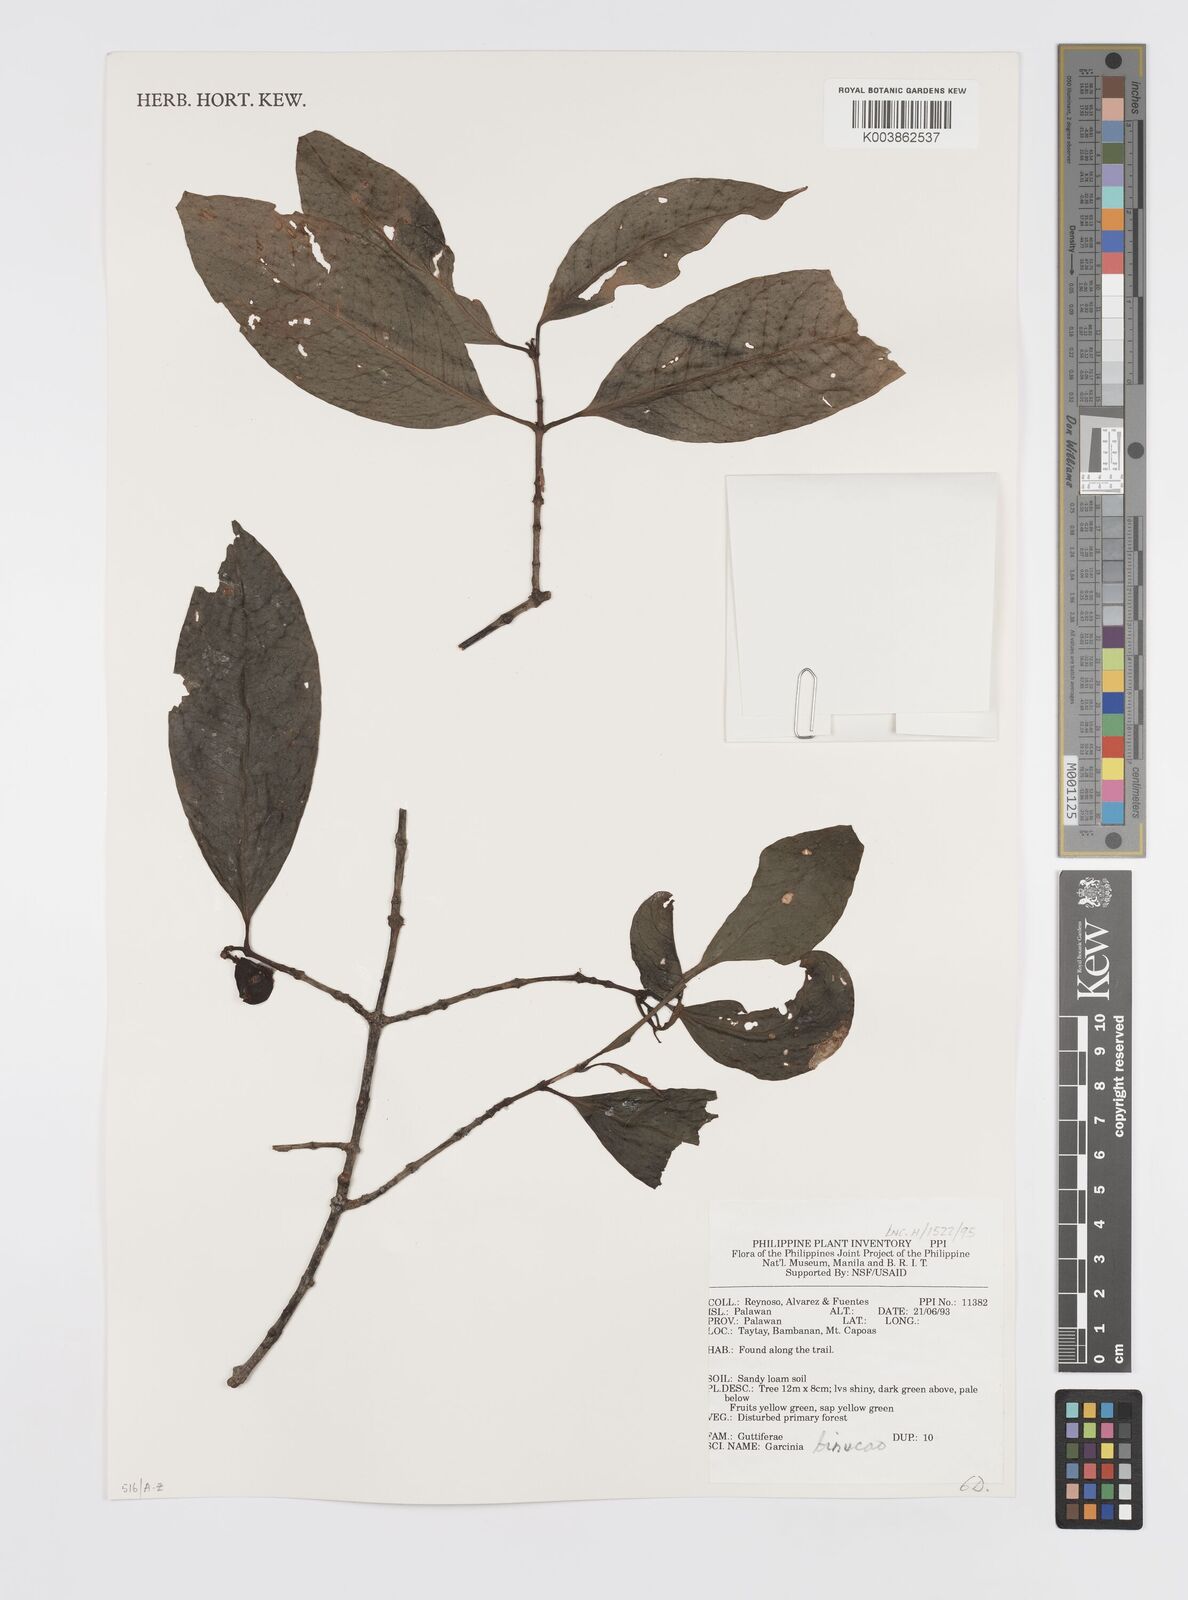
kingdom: Plantae
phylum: Tracheophyta
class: Magnoliopsida
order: Malpighiales
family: Clusiaceae
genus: Garcinia
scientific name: Garcinia binucao
